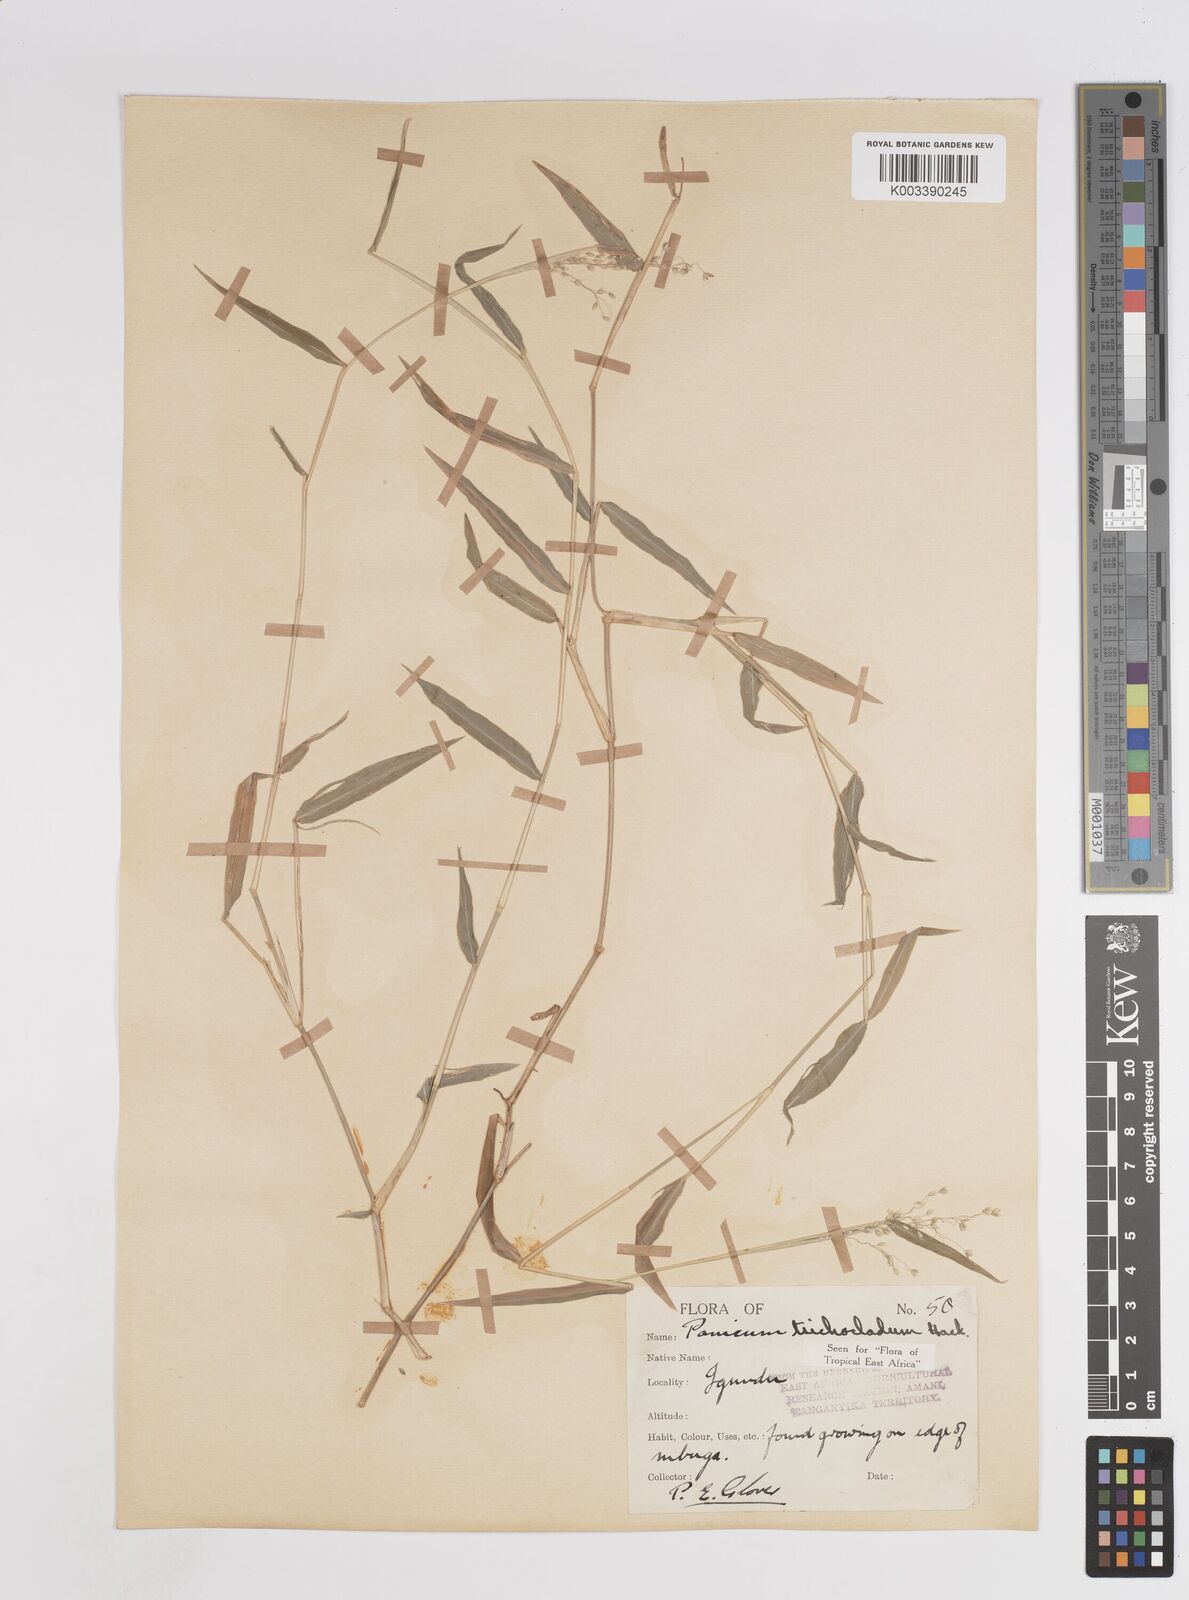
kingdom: Plantae
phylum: Tracheophyta
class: Liliopsida
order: Poales
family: Poaceae
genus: Panicum
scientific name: Panicum trichocladum
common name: Donkey grass
